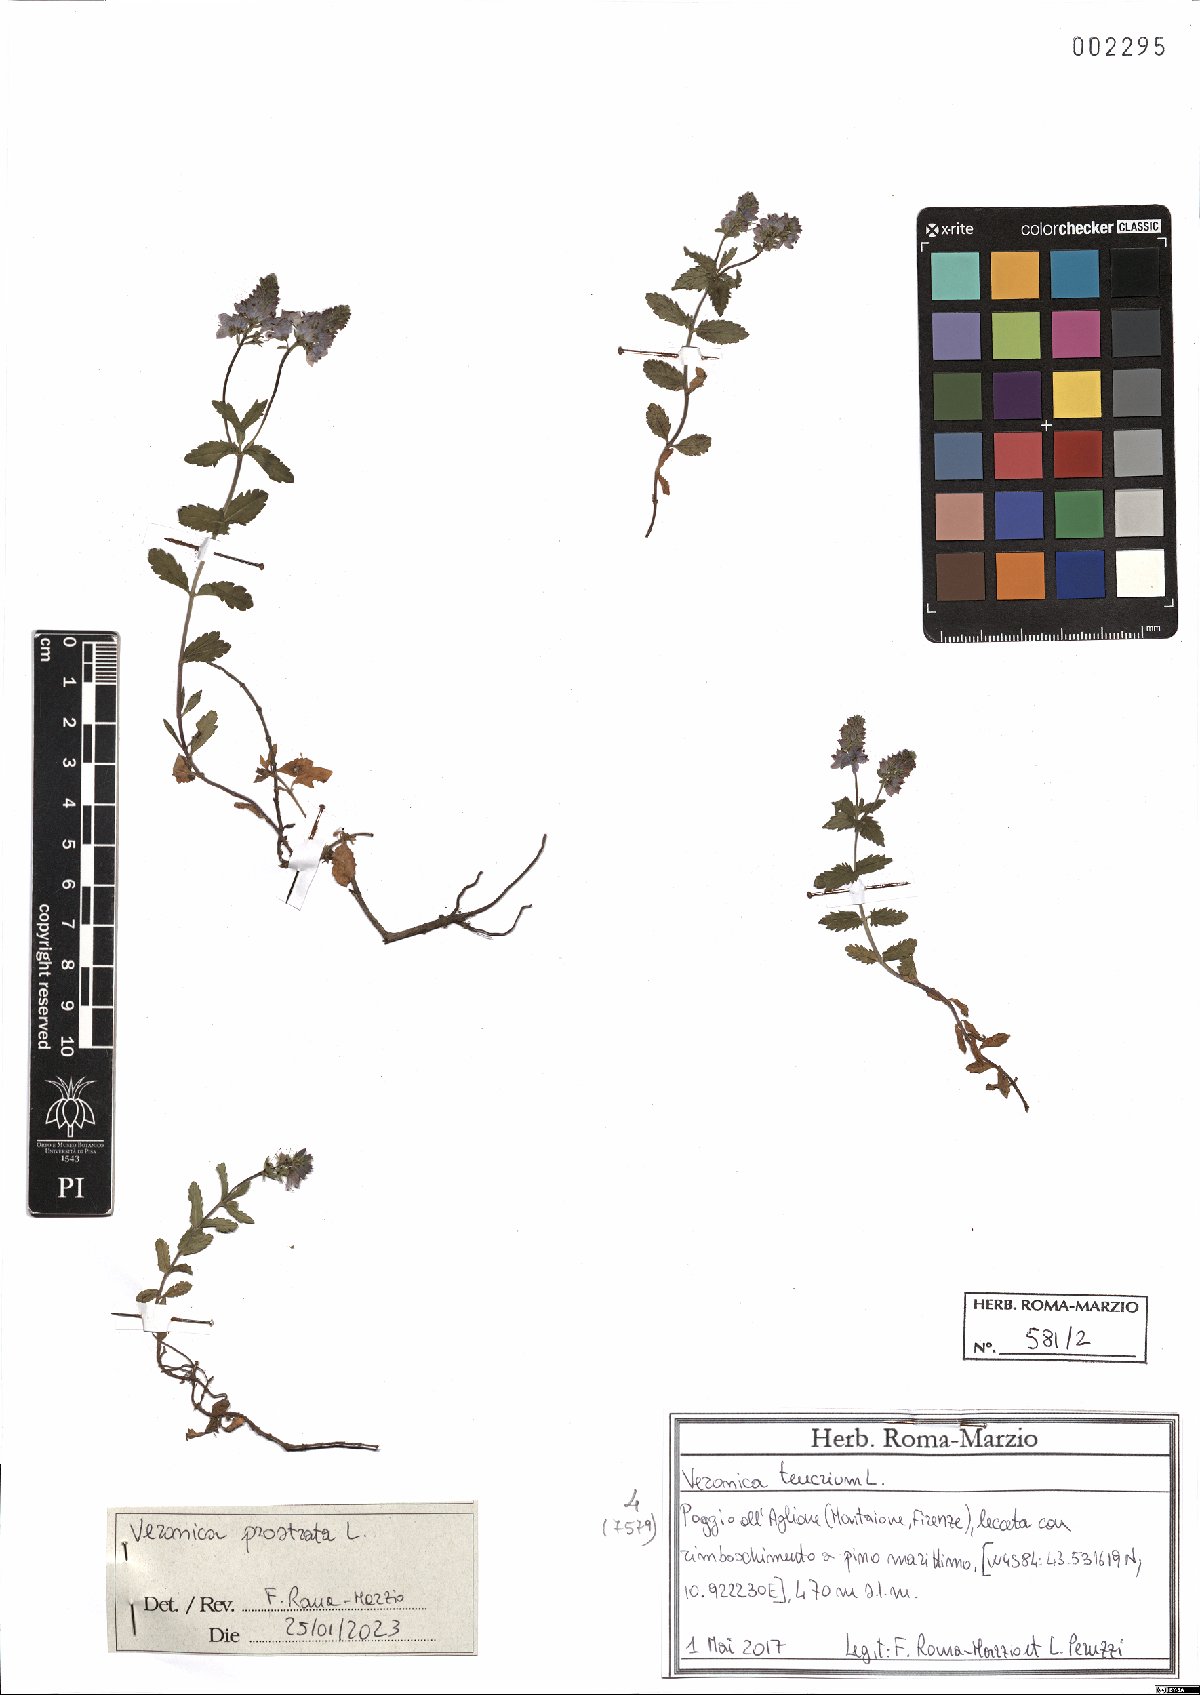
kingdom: Plantae
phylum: Tracheophyta
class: Magnoliopsida
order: Lamiales
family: Plantaginaceae
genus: Veronica
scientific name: Veronica prostrata
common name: Prostrate speedwell
